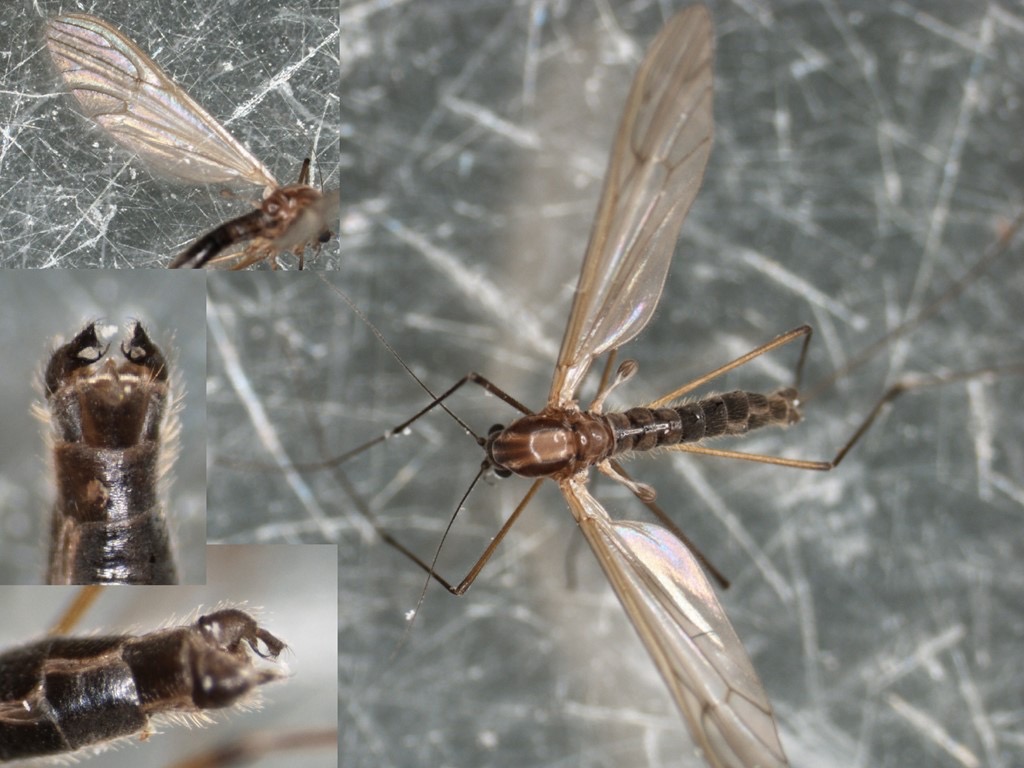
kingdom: Animalia
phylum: Arthropoda
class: Insecta
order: Diptera
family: Dixidae
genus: Dixella
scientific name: Dixella aestivalis
